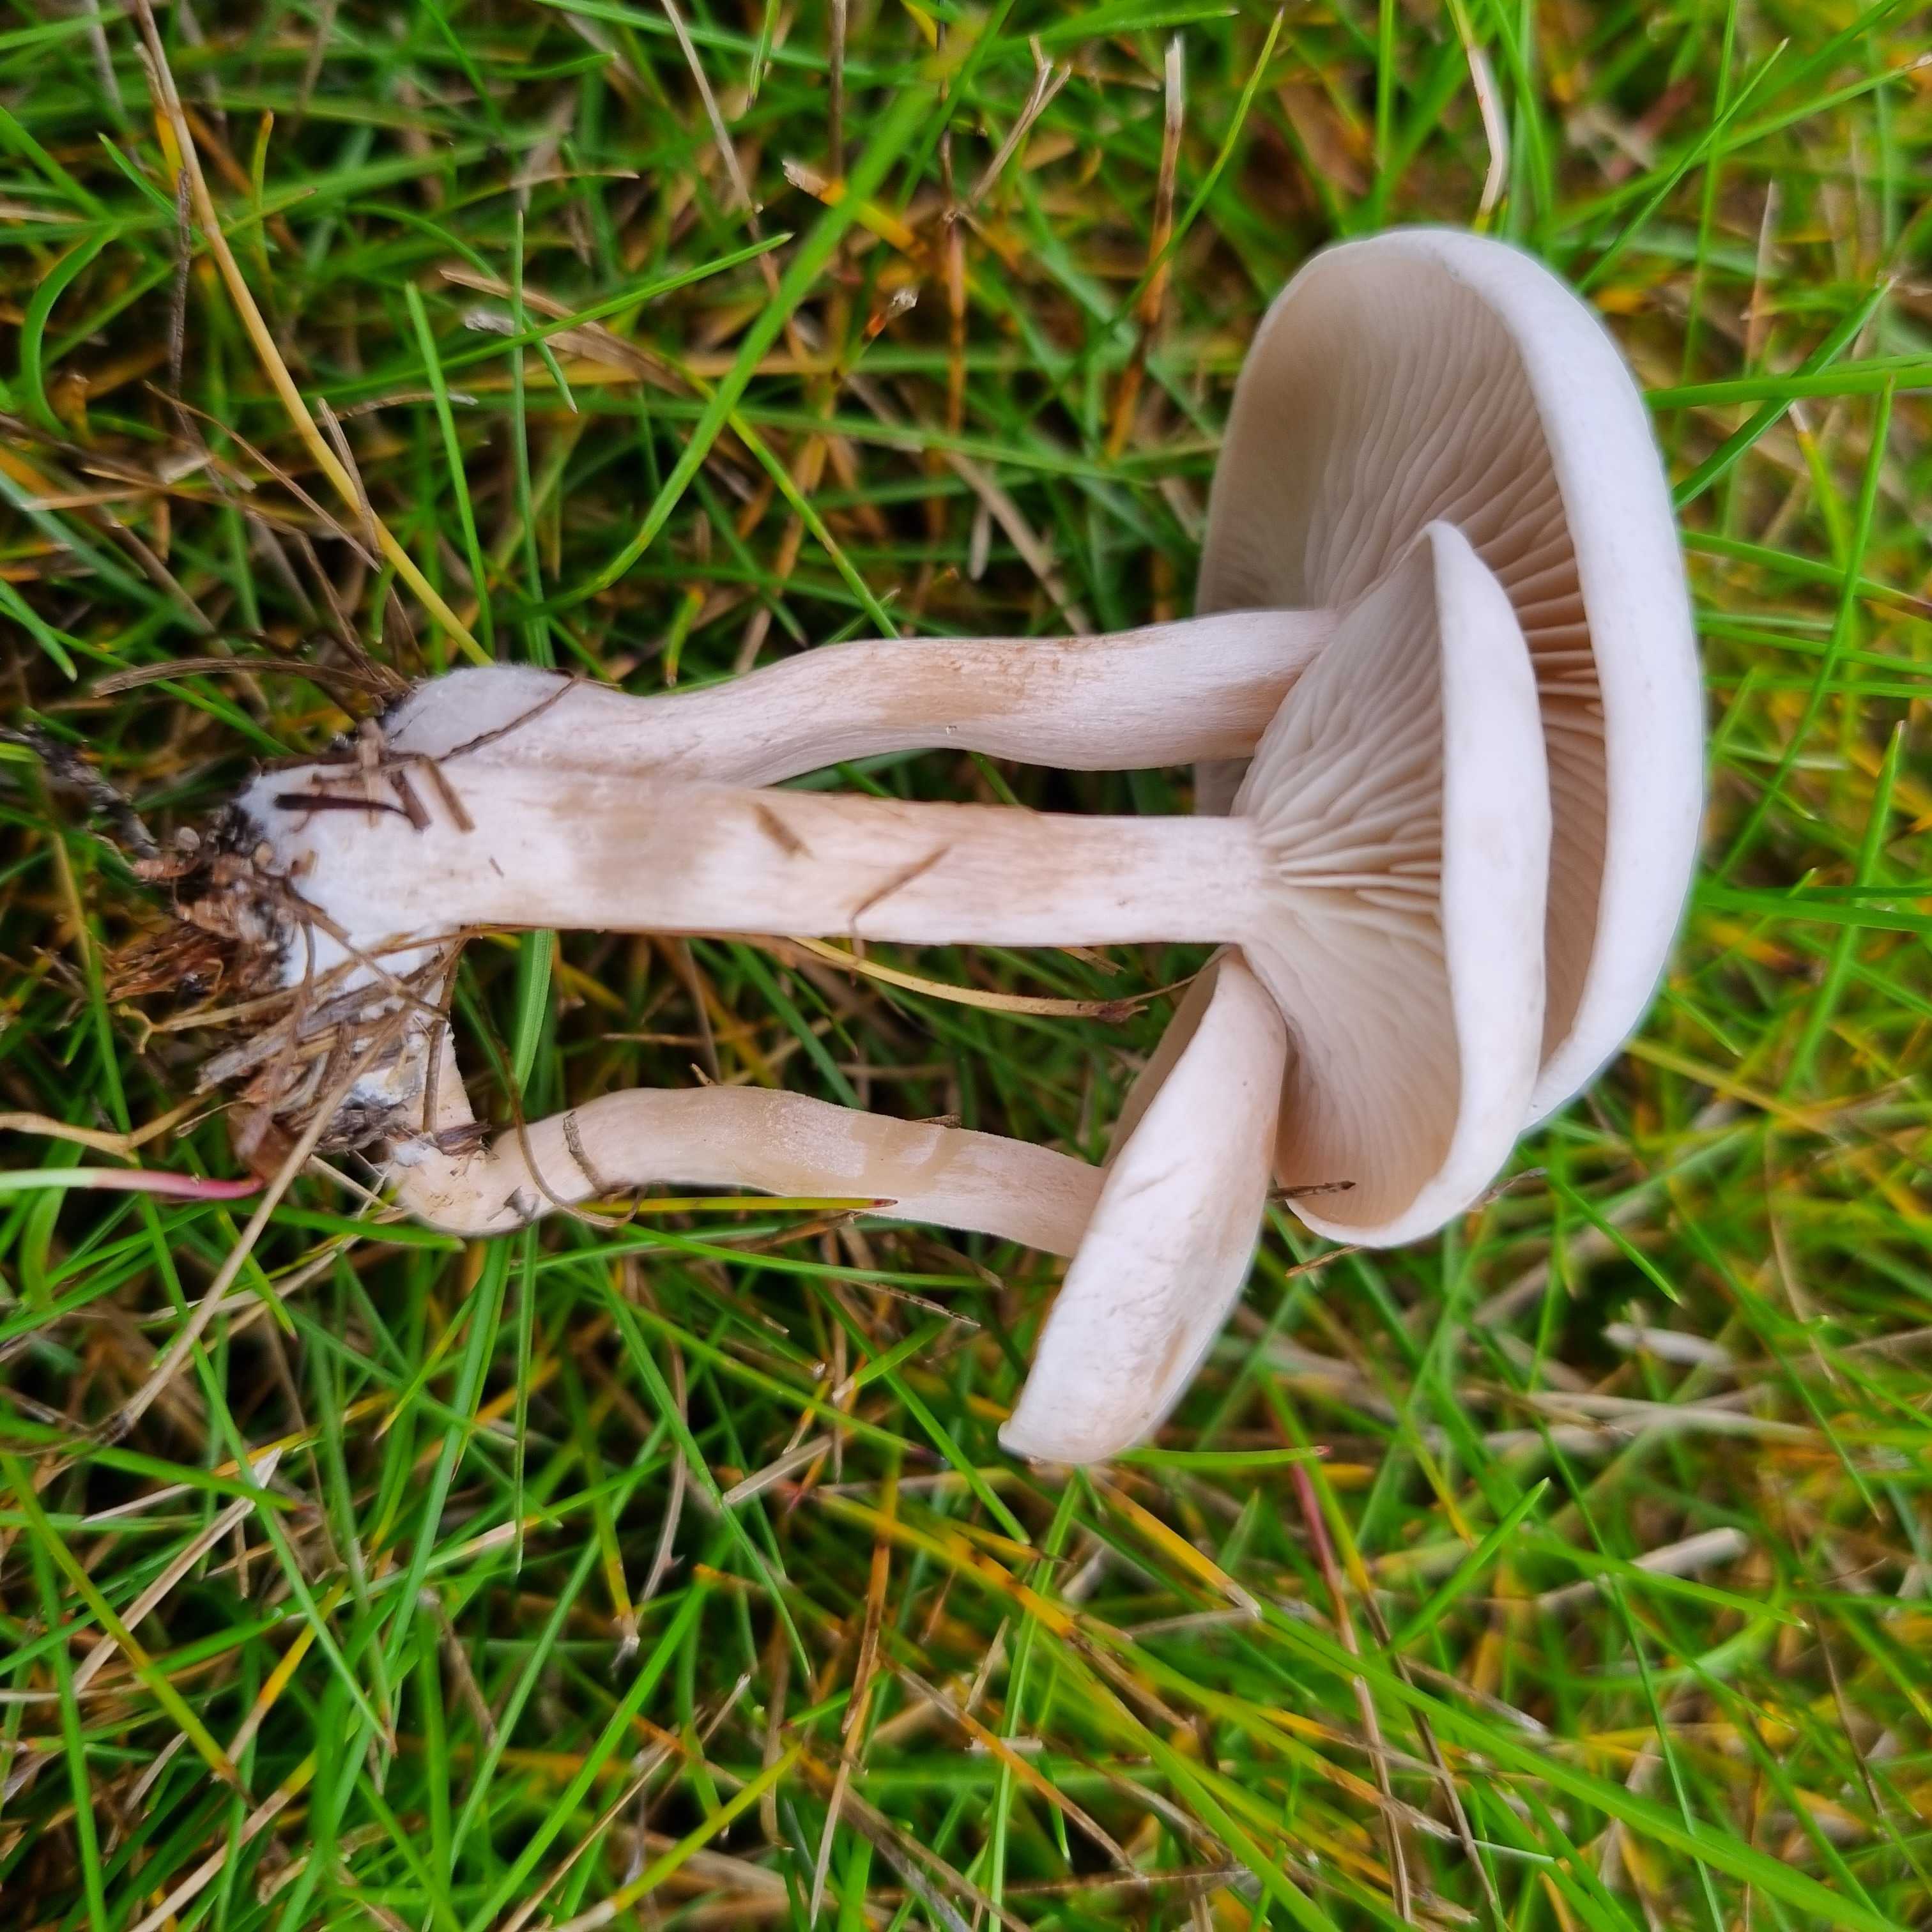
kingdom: Fungi
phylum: Basidiomycota
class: Agaricomycetes
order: Agaricales
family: Tricholomataceae
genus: Clitocybe
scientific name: Clitocybe rivulosa
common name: eng-tragthat
